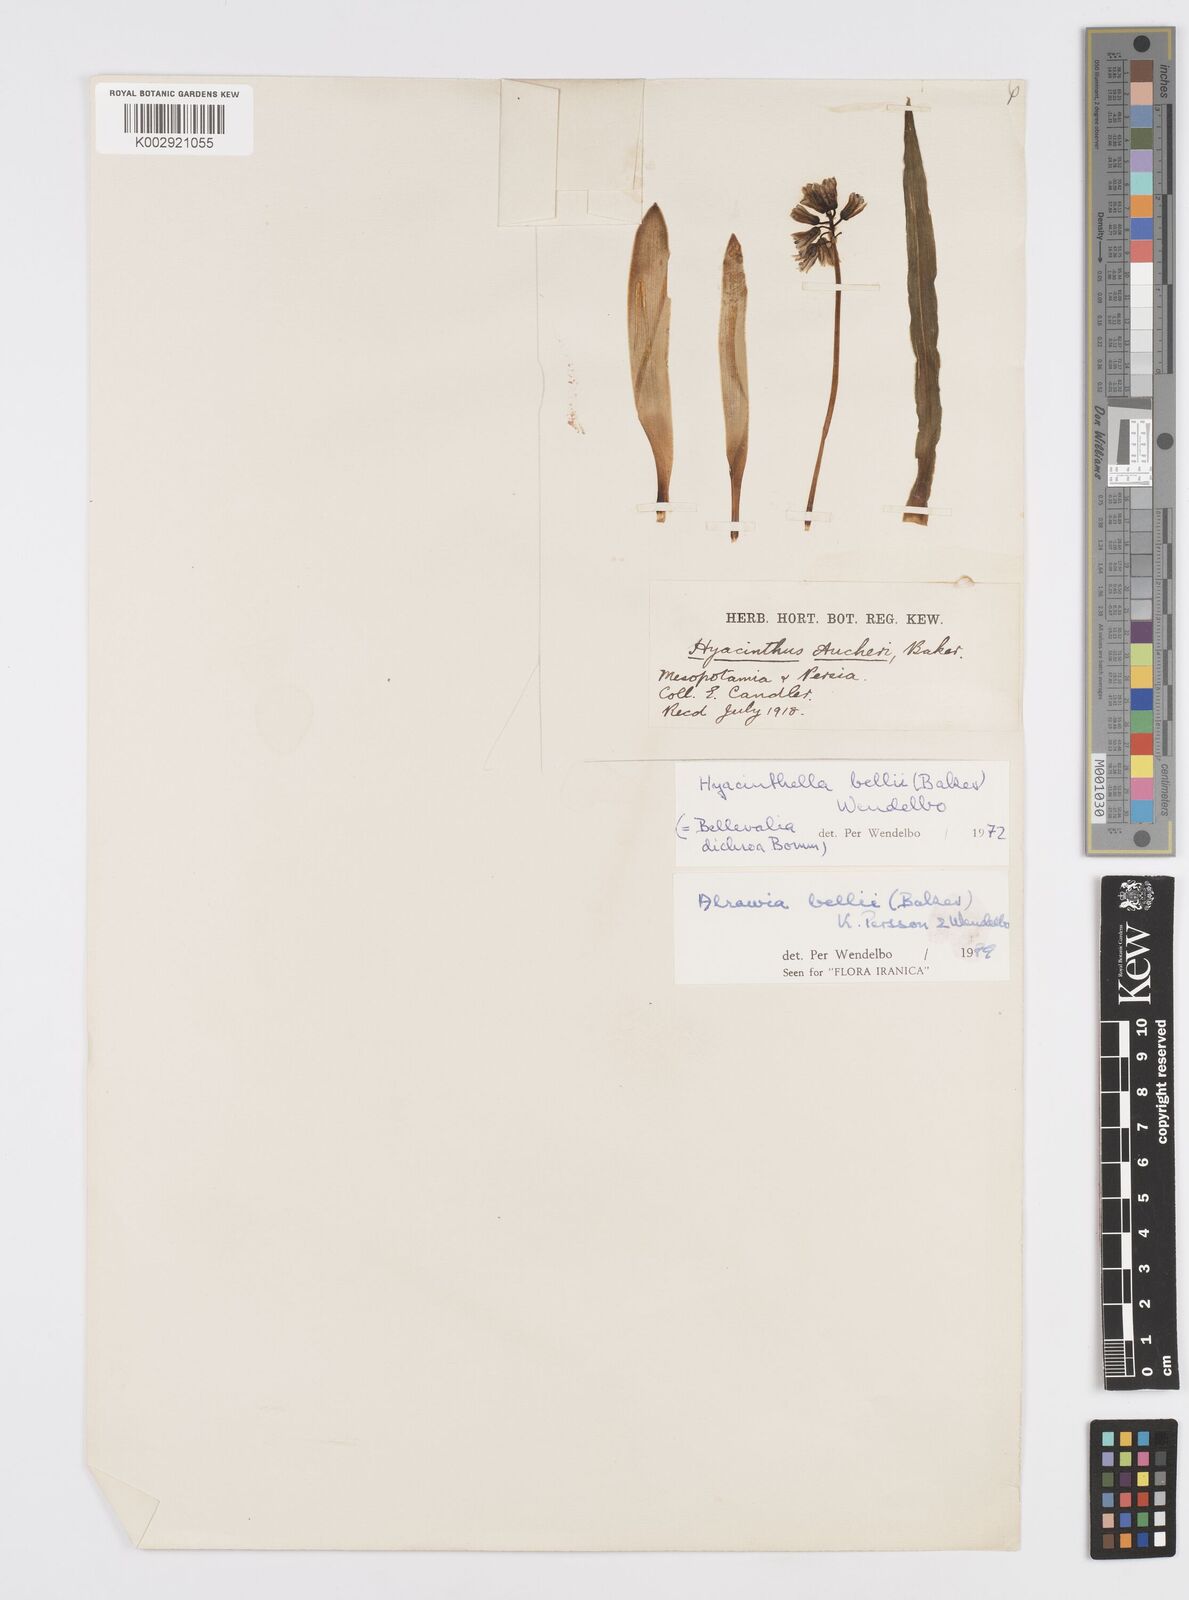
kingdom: Plantae
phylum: Tracheophyta
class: Liliopsida
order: Asparagales
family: Asparagaceae
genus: Alrawia
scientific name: Alrawia bellii
